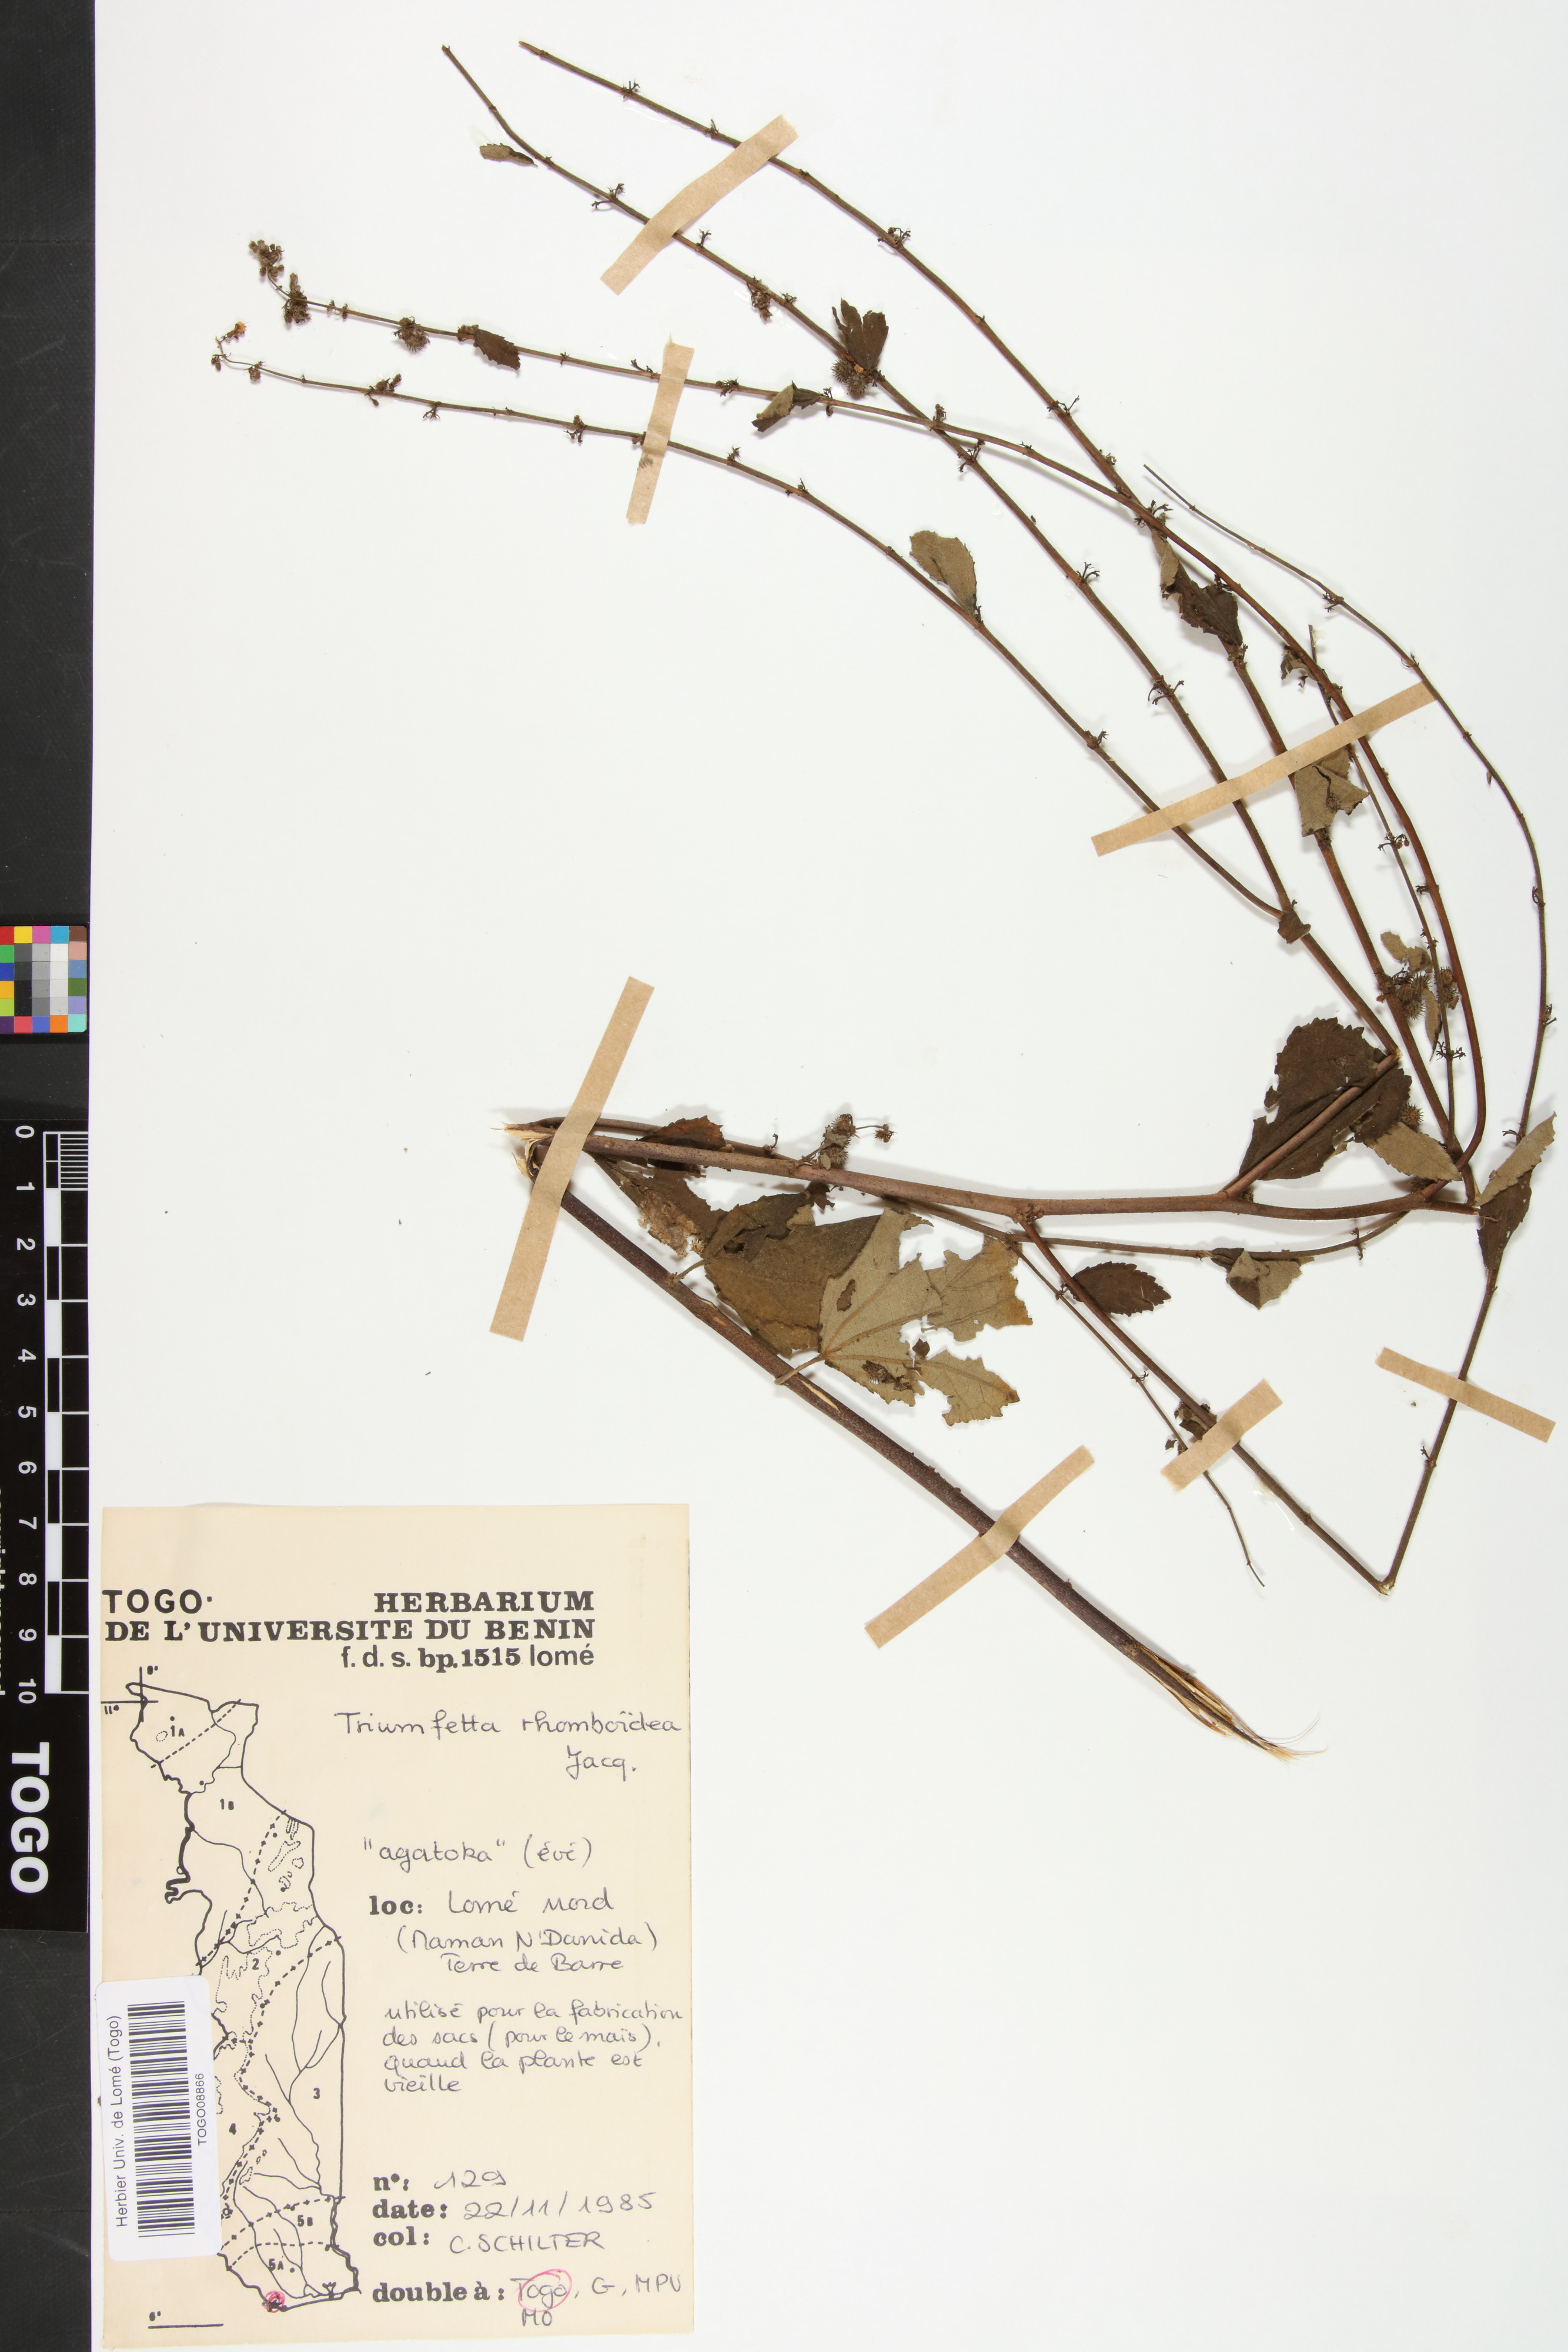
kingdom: Plantae
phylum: Tracheophyta
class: Magnoliopsida
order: Malvales
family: Malvaceae
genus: Triumfetta
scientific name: Triumfetta rhomboidea
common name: Diamond burbark
